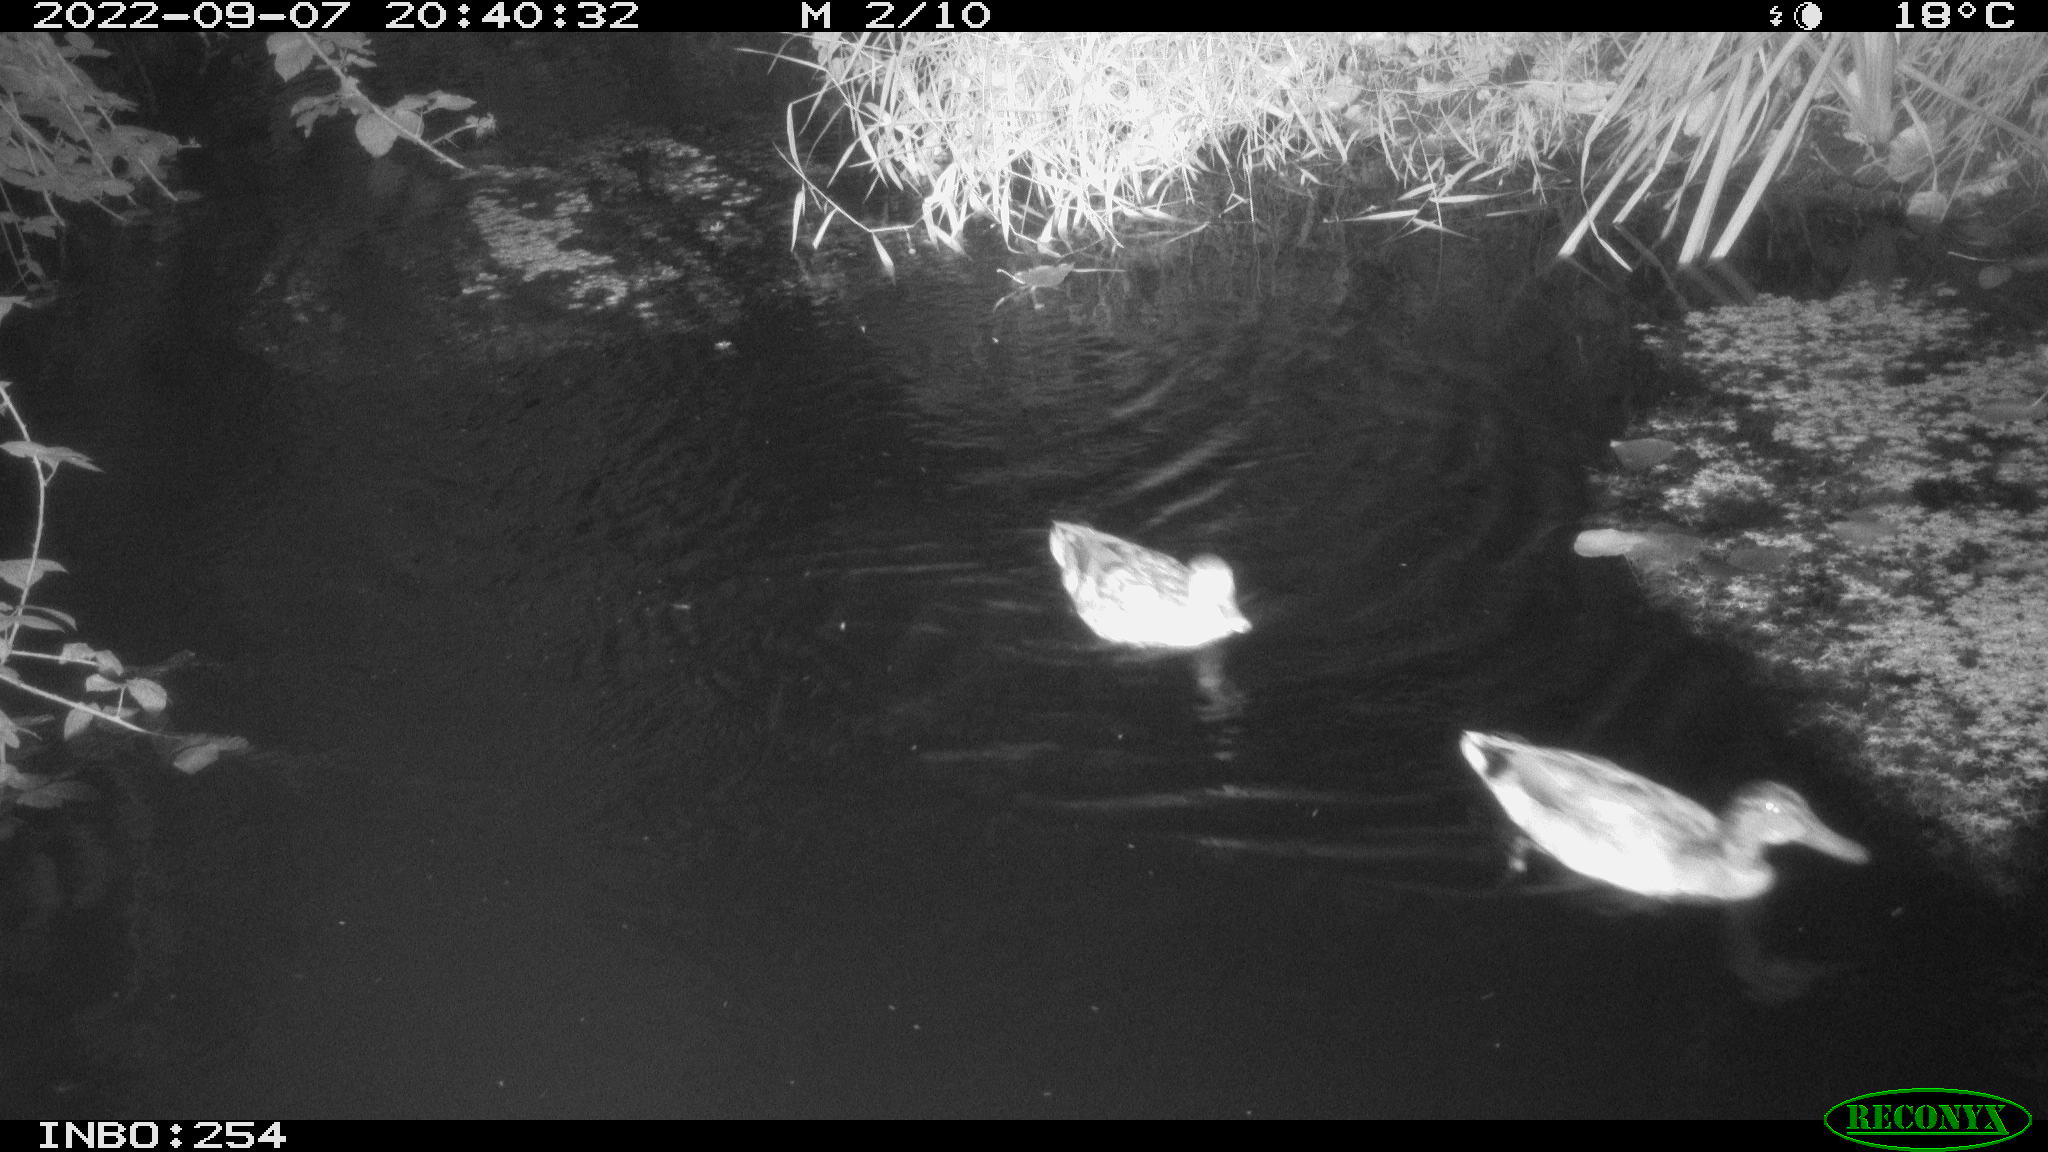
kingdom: Animalia
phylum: Chordata
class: Aves
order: Anseriformes
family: Anatidae
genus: Anas
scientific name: Anas
